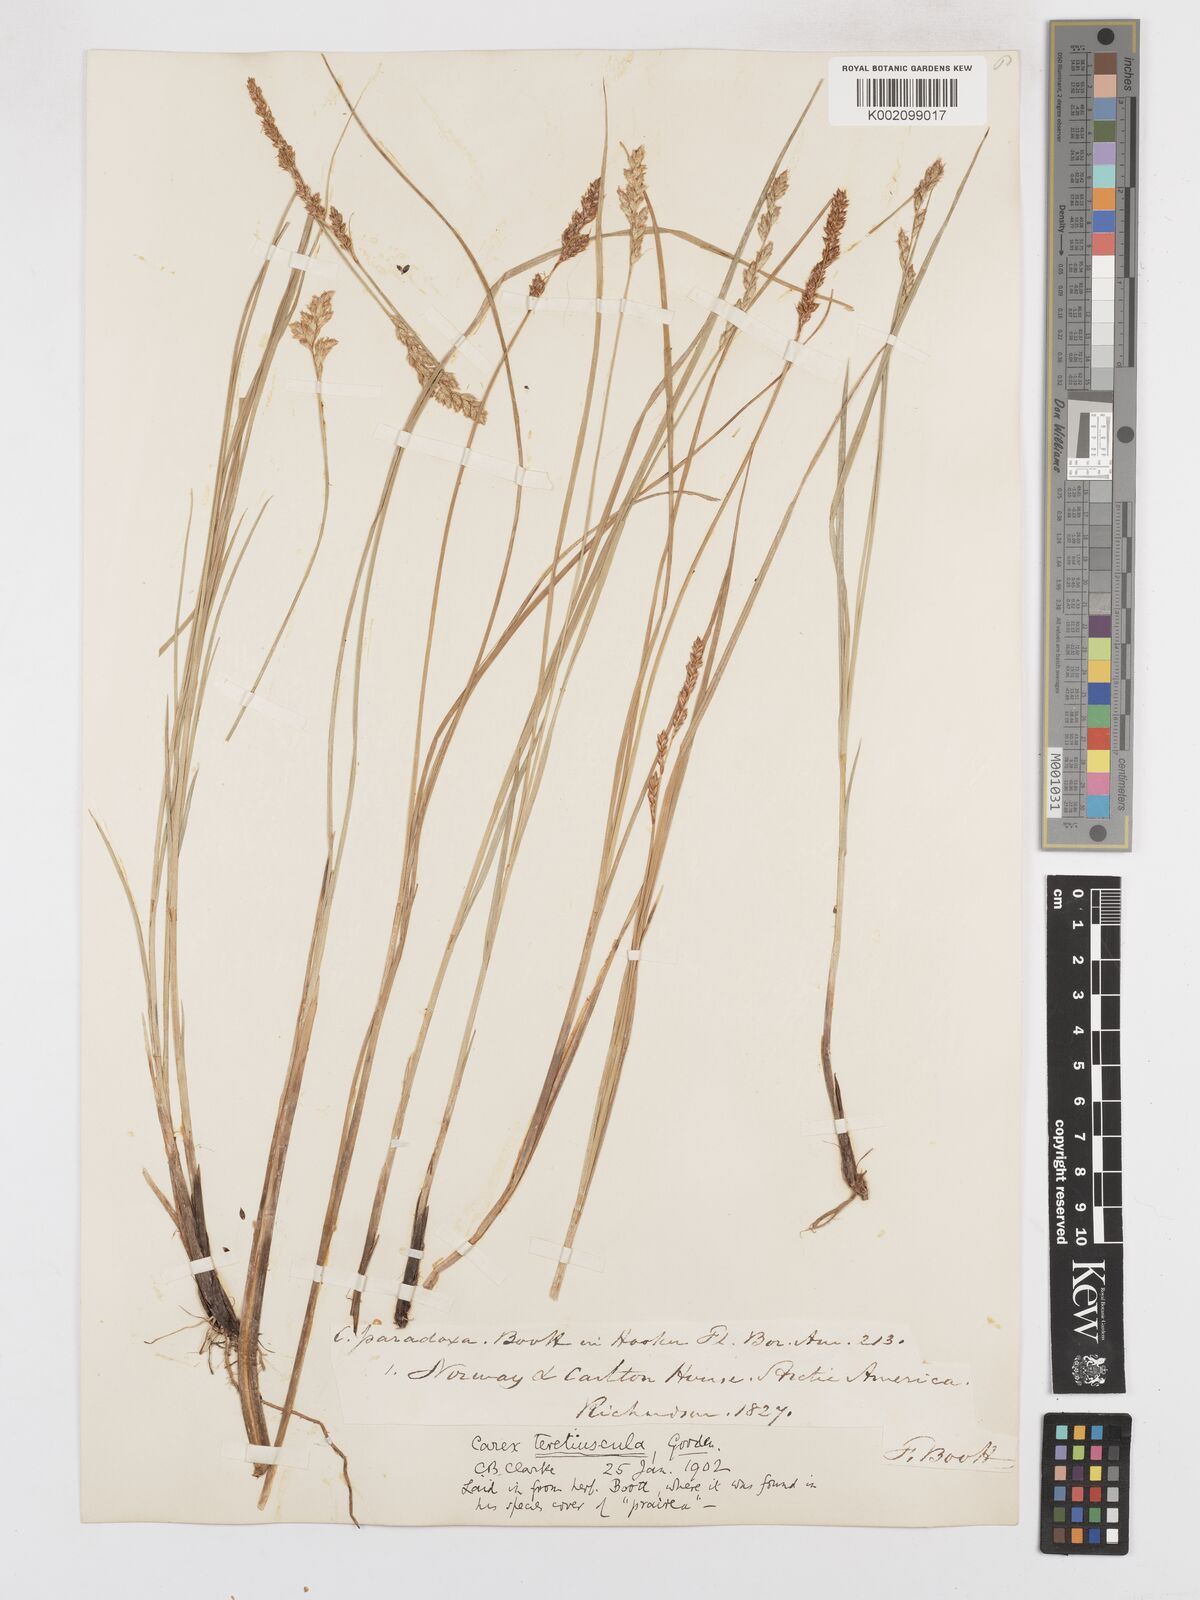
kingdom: Plantae
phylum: Tracheophyta
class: Liliopsida
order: Poales
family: Cyperaceae
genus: Carex
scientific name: Carex diandra
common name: Lesser tussock-sedge
